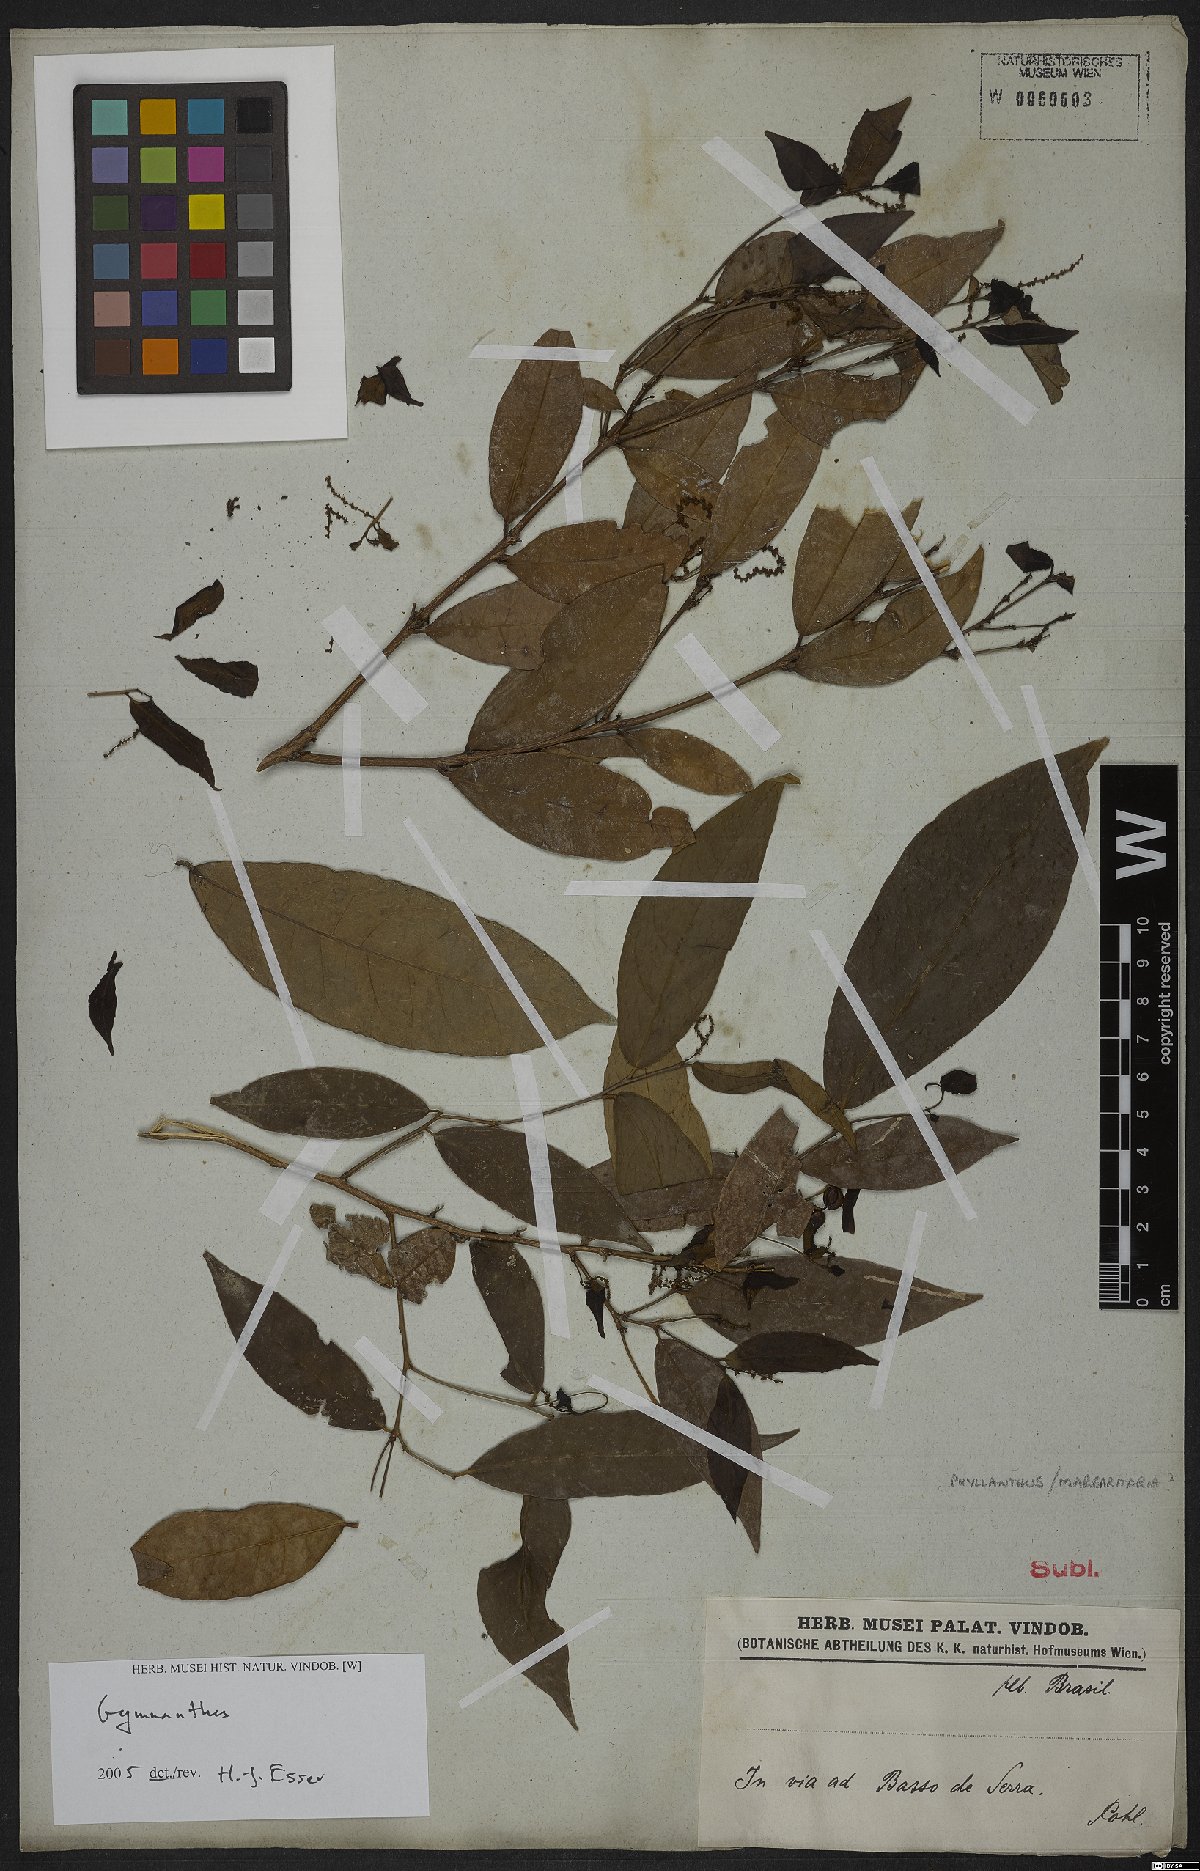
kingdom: Plantae
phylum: Tracheophyta
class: Magnoliopsida
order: Malpighiales
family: Euphorbiaceae
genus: Gymnanthes
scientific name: Gymnanthes
